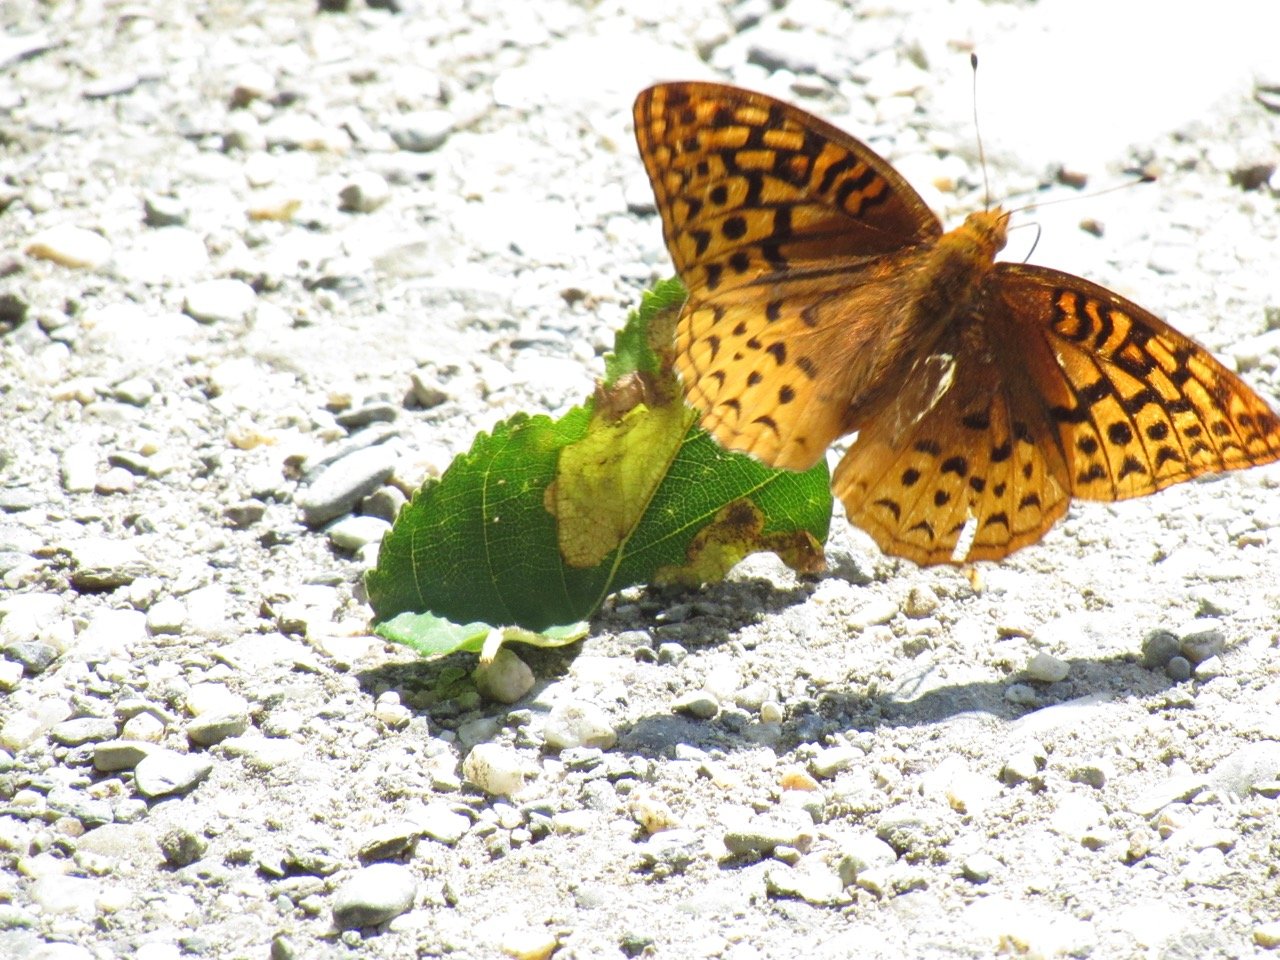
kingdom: Animalia
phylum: Arthropoda
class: Insecta
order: Lepidoptera
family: Nymphalidae
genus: Speyeria
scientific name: Speyeria cybele
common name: Great Spangled Fritillary
